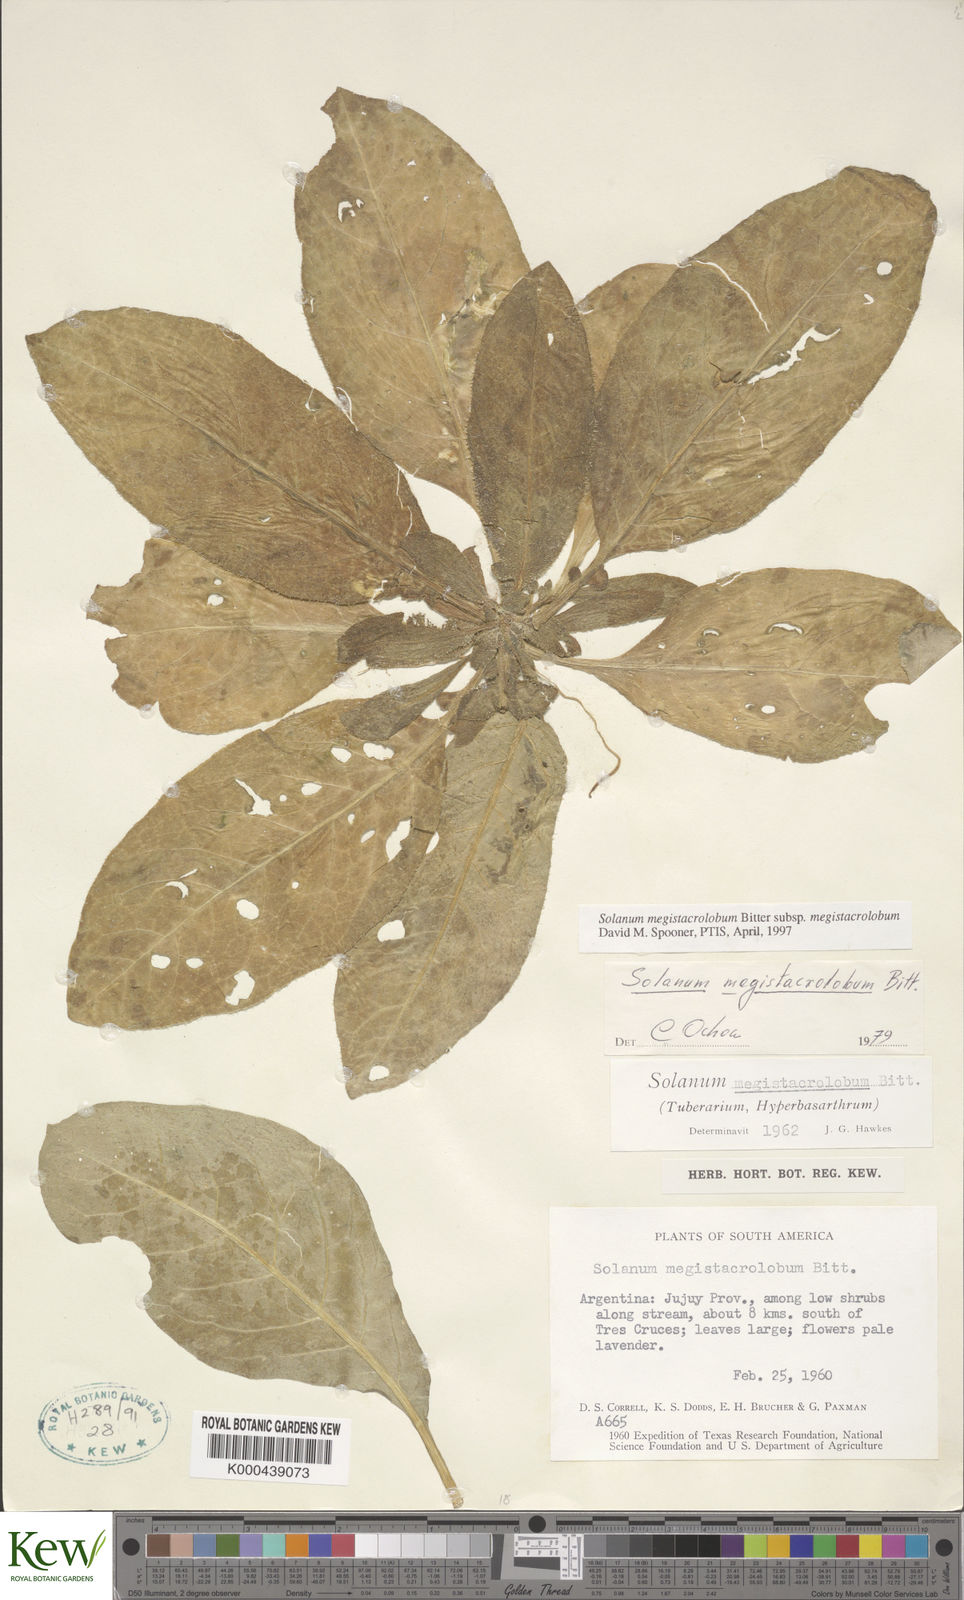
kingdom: Plantae
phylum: Tracheophyta
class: Magnoliopsida
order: Solanales
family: Solanaceae
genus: Solanum
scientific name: Solanum boliviense
